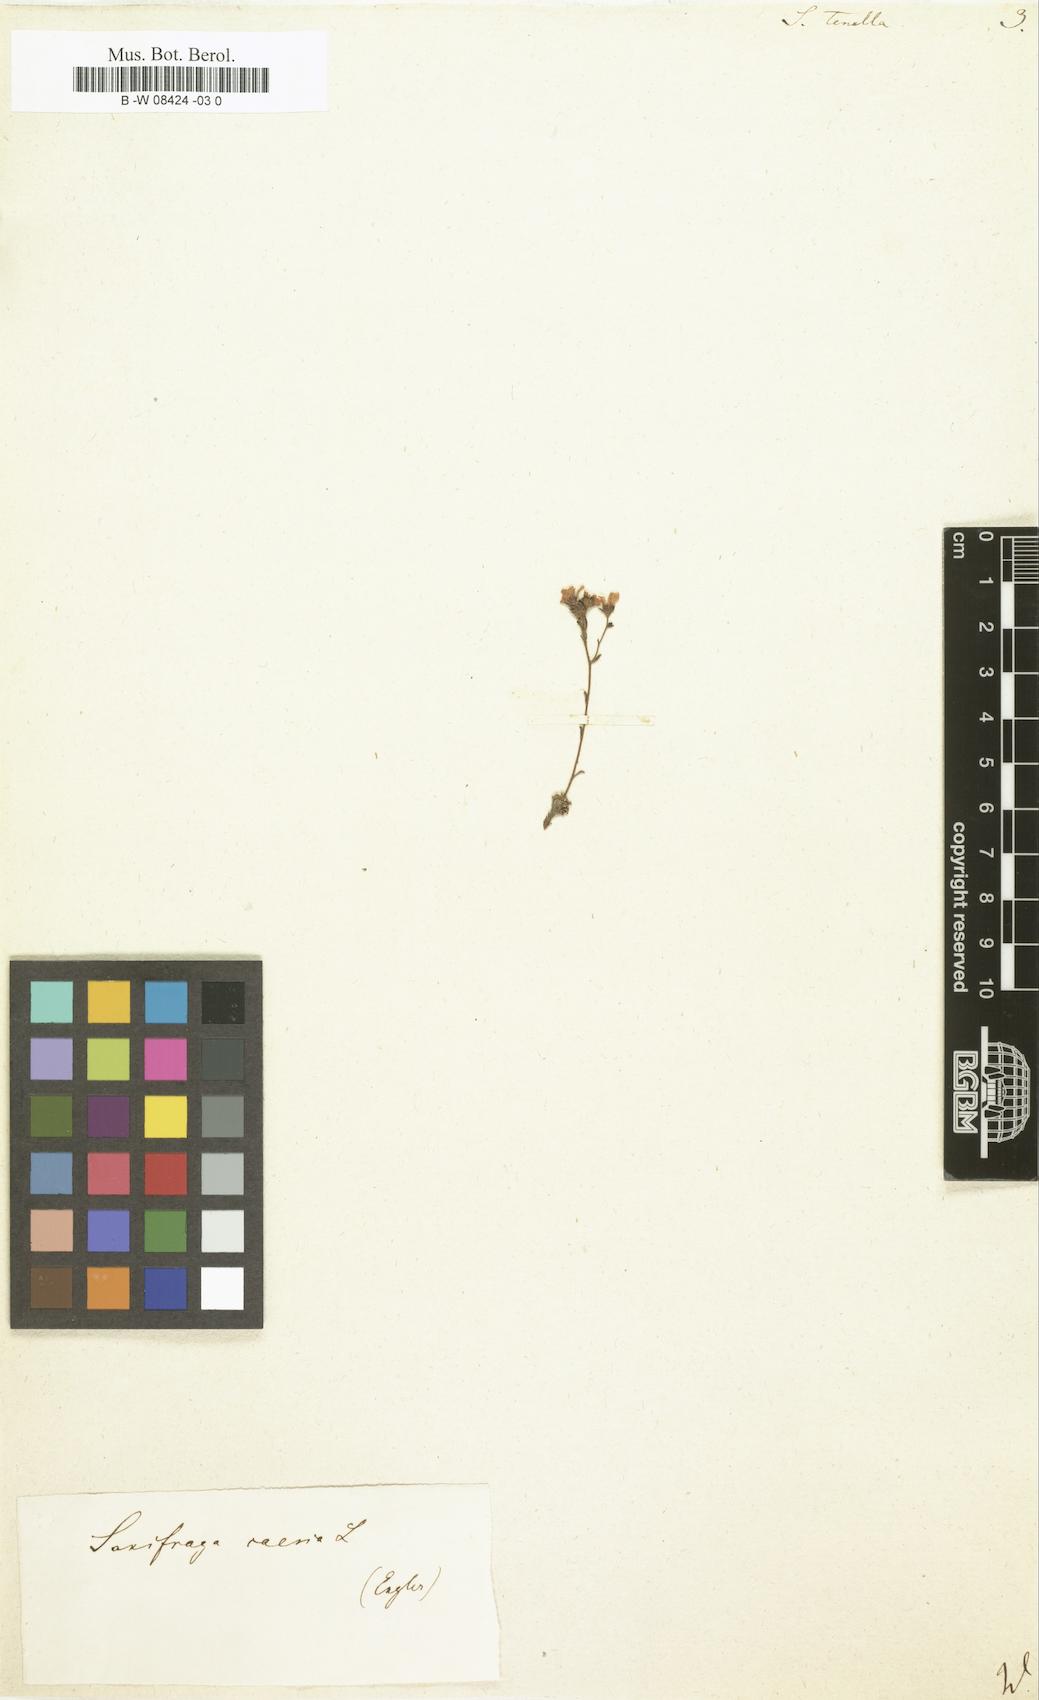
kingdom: Plantae
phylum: Tracheophyta
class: Magnoliopsida
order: Saxifragales
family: Saxifragaceae
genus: Saxifraga
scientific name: Saxifraga tenella
